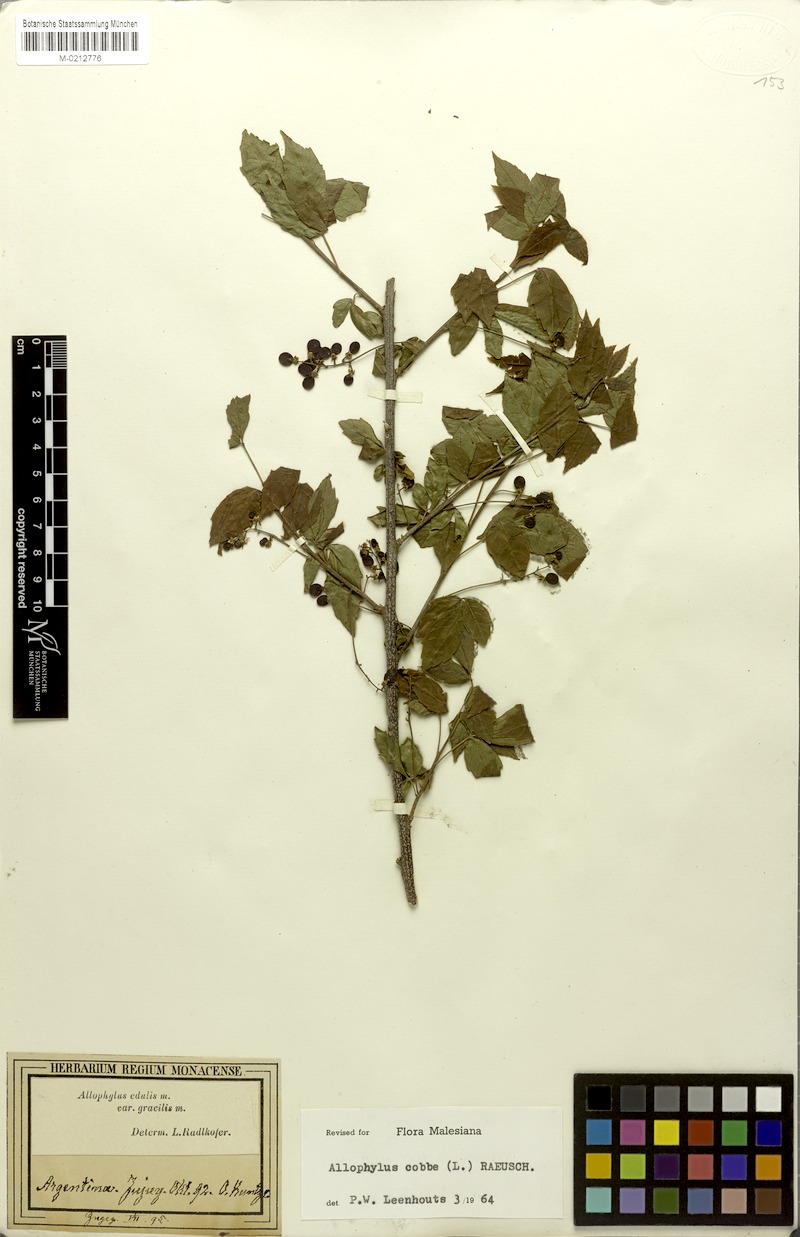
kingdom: Plantae
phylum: Tracheophyta
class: Magnoliopsida
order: Sapindales
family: Sapindaceae
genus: Allophylus
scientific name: Allophylus edulis
